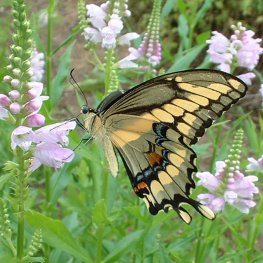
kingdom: Animalia
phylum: Arthropoda
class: Insecta
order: Lepidoptera
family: Papilionidae
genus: Papilio
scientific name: Papilio cresphontes
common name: Eastern Giant Swallowtail
